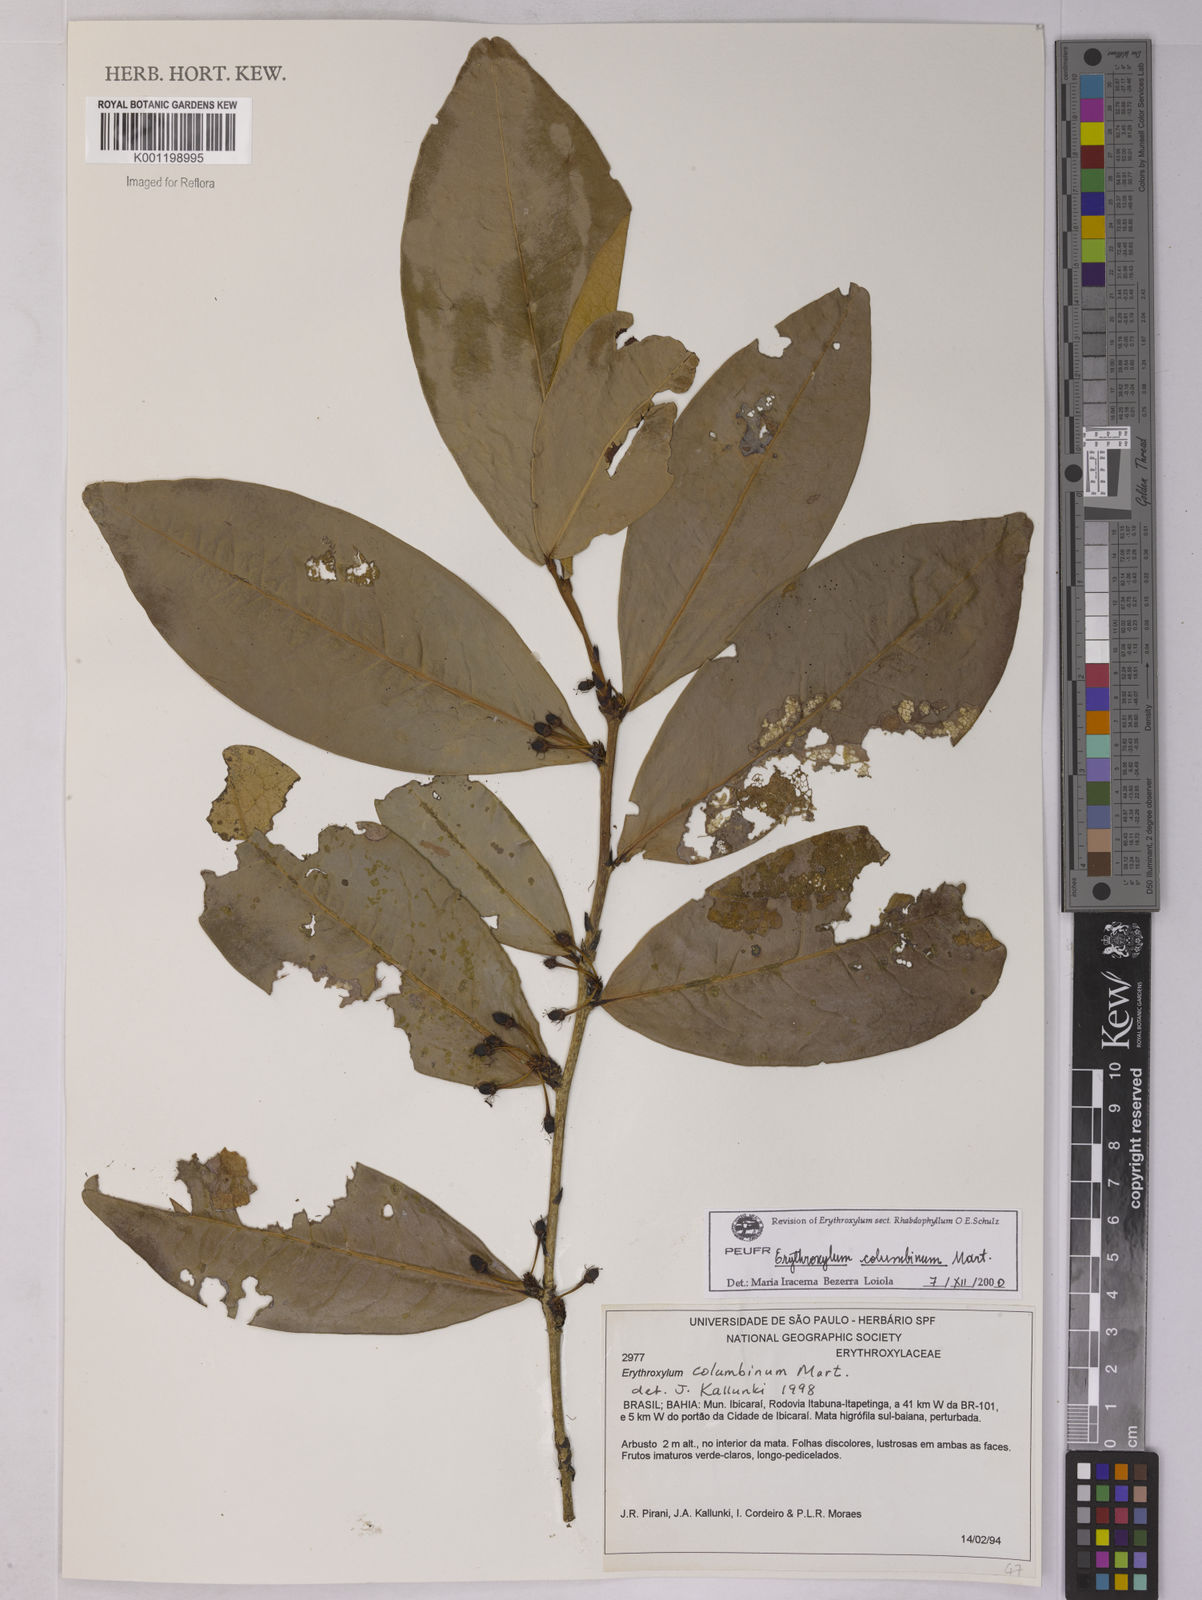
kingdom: Plantae
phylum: Tracheophyta
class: Magnoliopsida
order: Malpighiales
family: Erythroxylaceae
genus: Erythroxylum
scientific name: Erythroxylum columbinum
